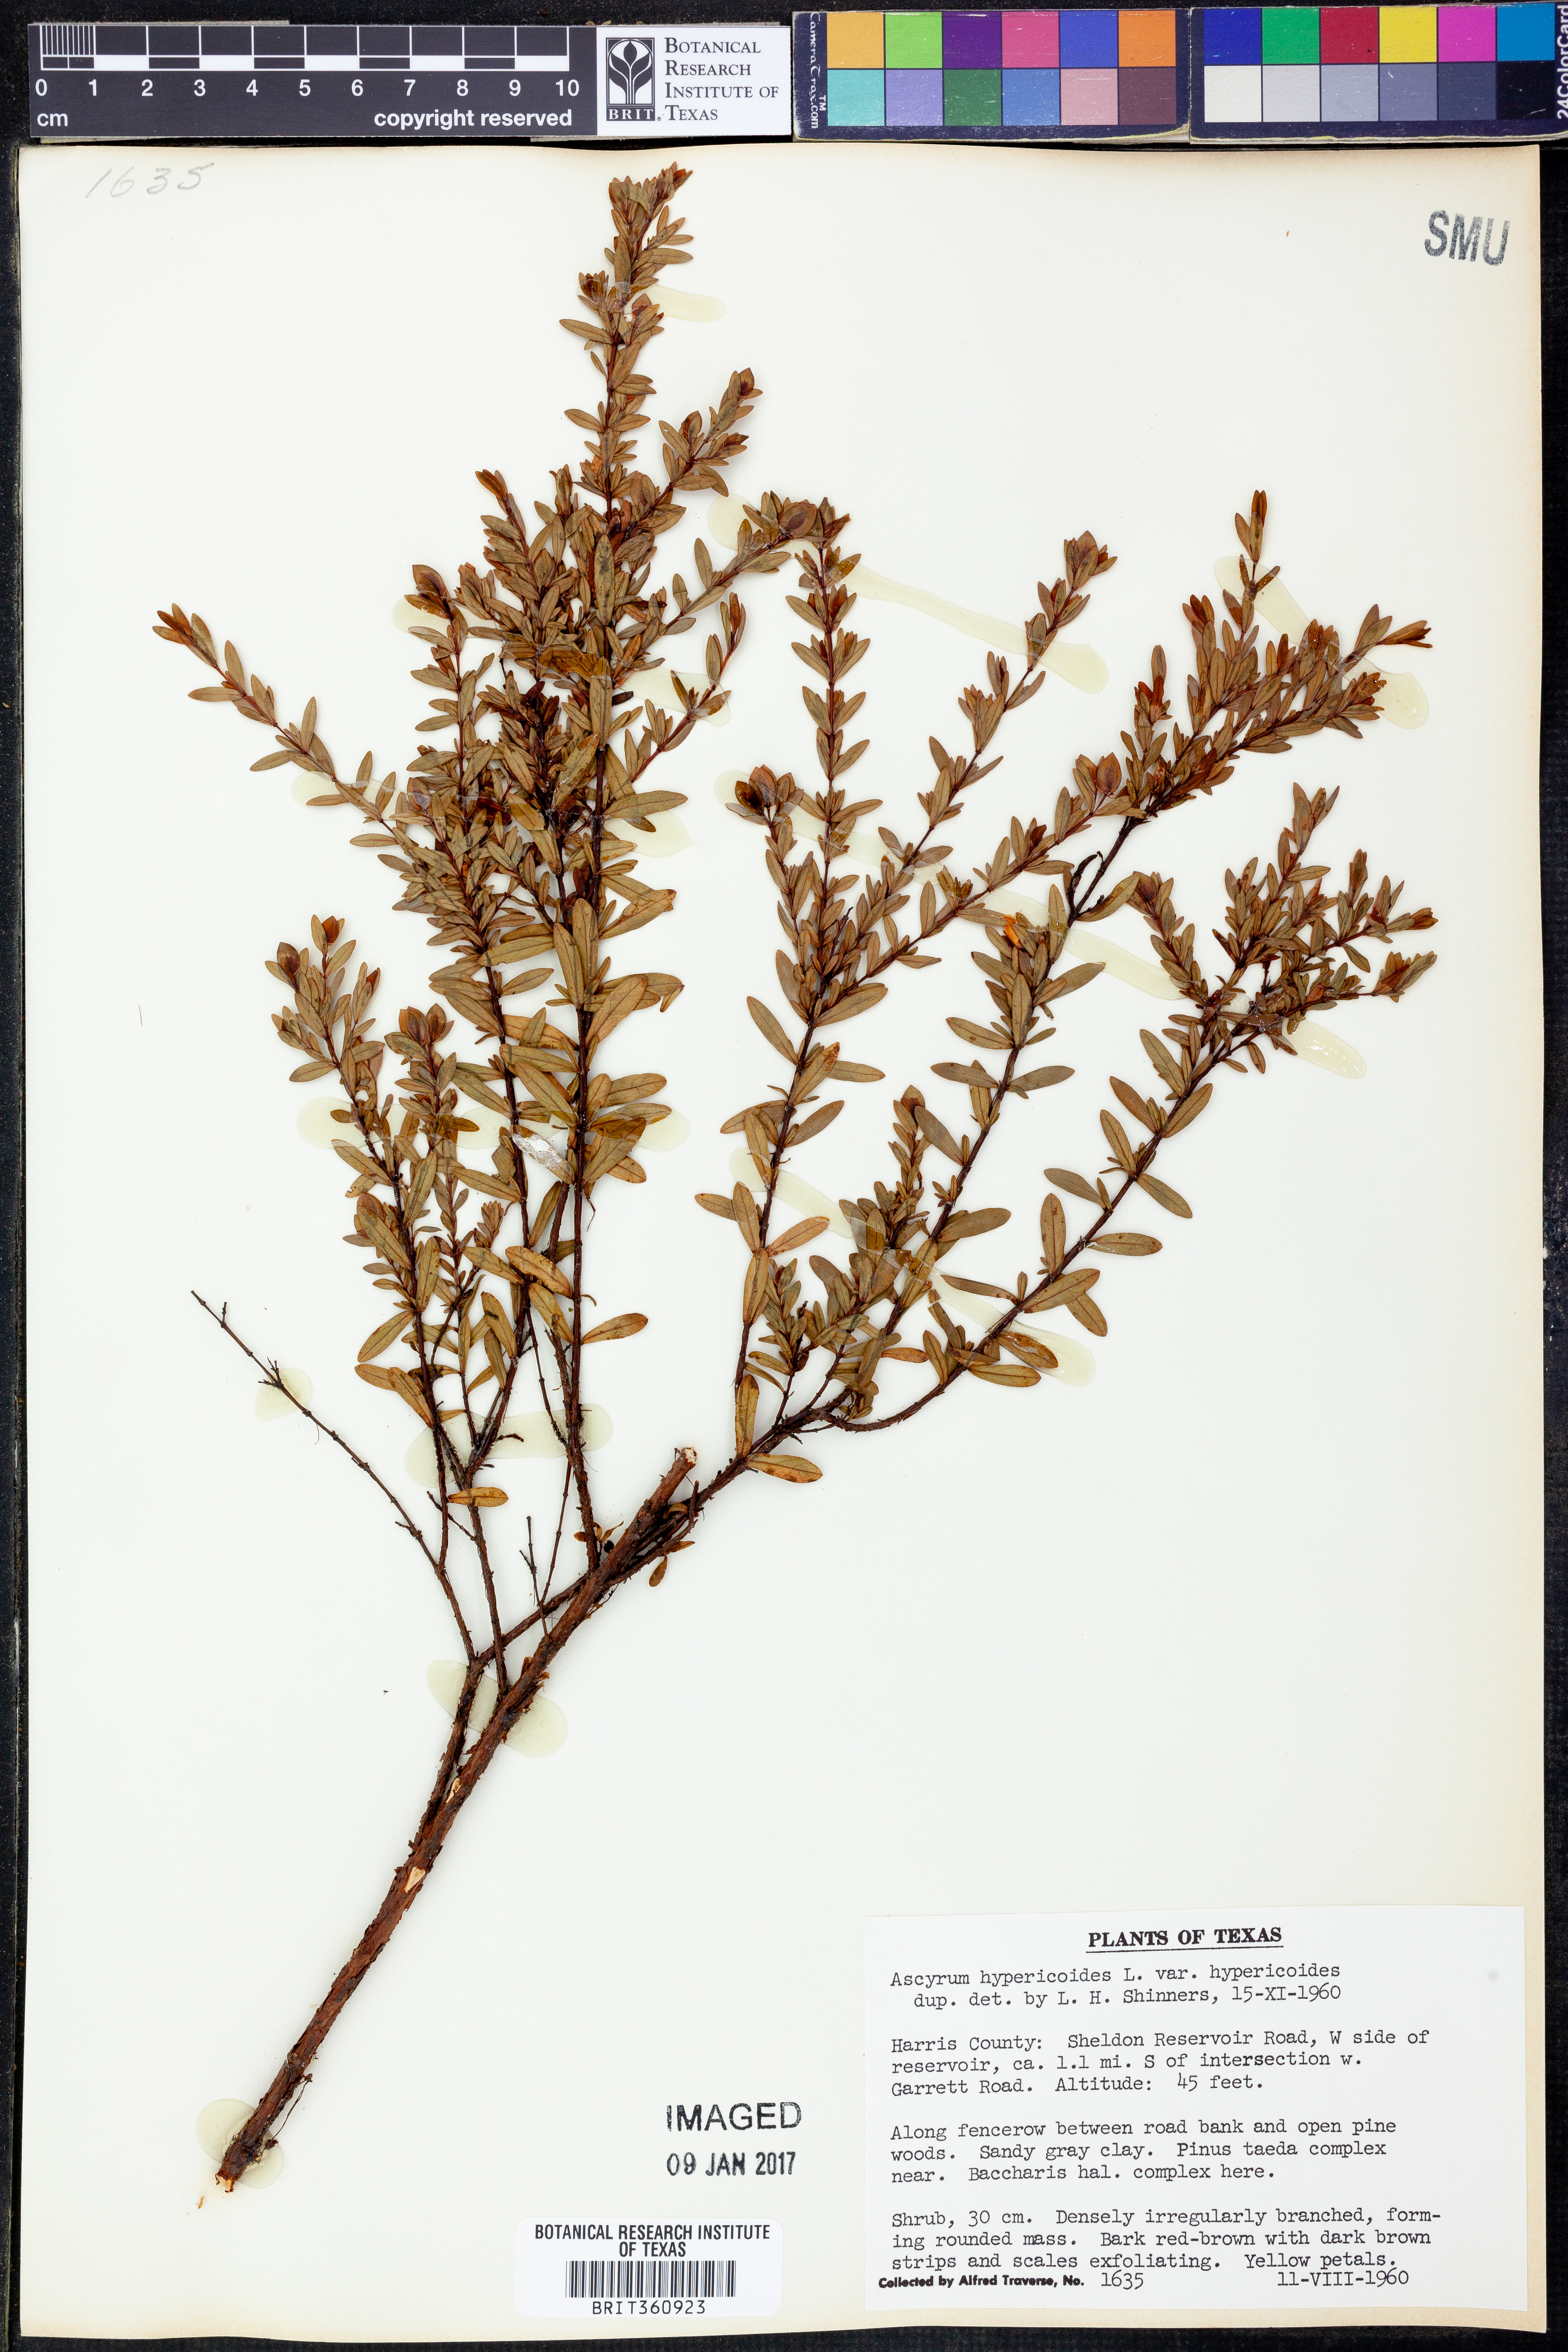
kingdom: Plantae
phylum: Tracheophyta
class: Magnoliopsida
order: Malpighiales
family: Hypericaceae
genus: Hypericum
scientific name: Hypericum hypericoides
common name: St. andrew's cross
